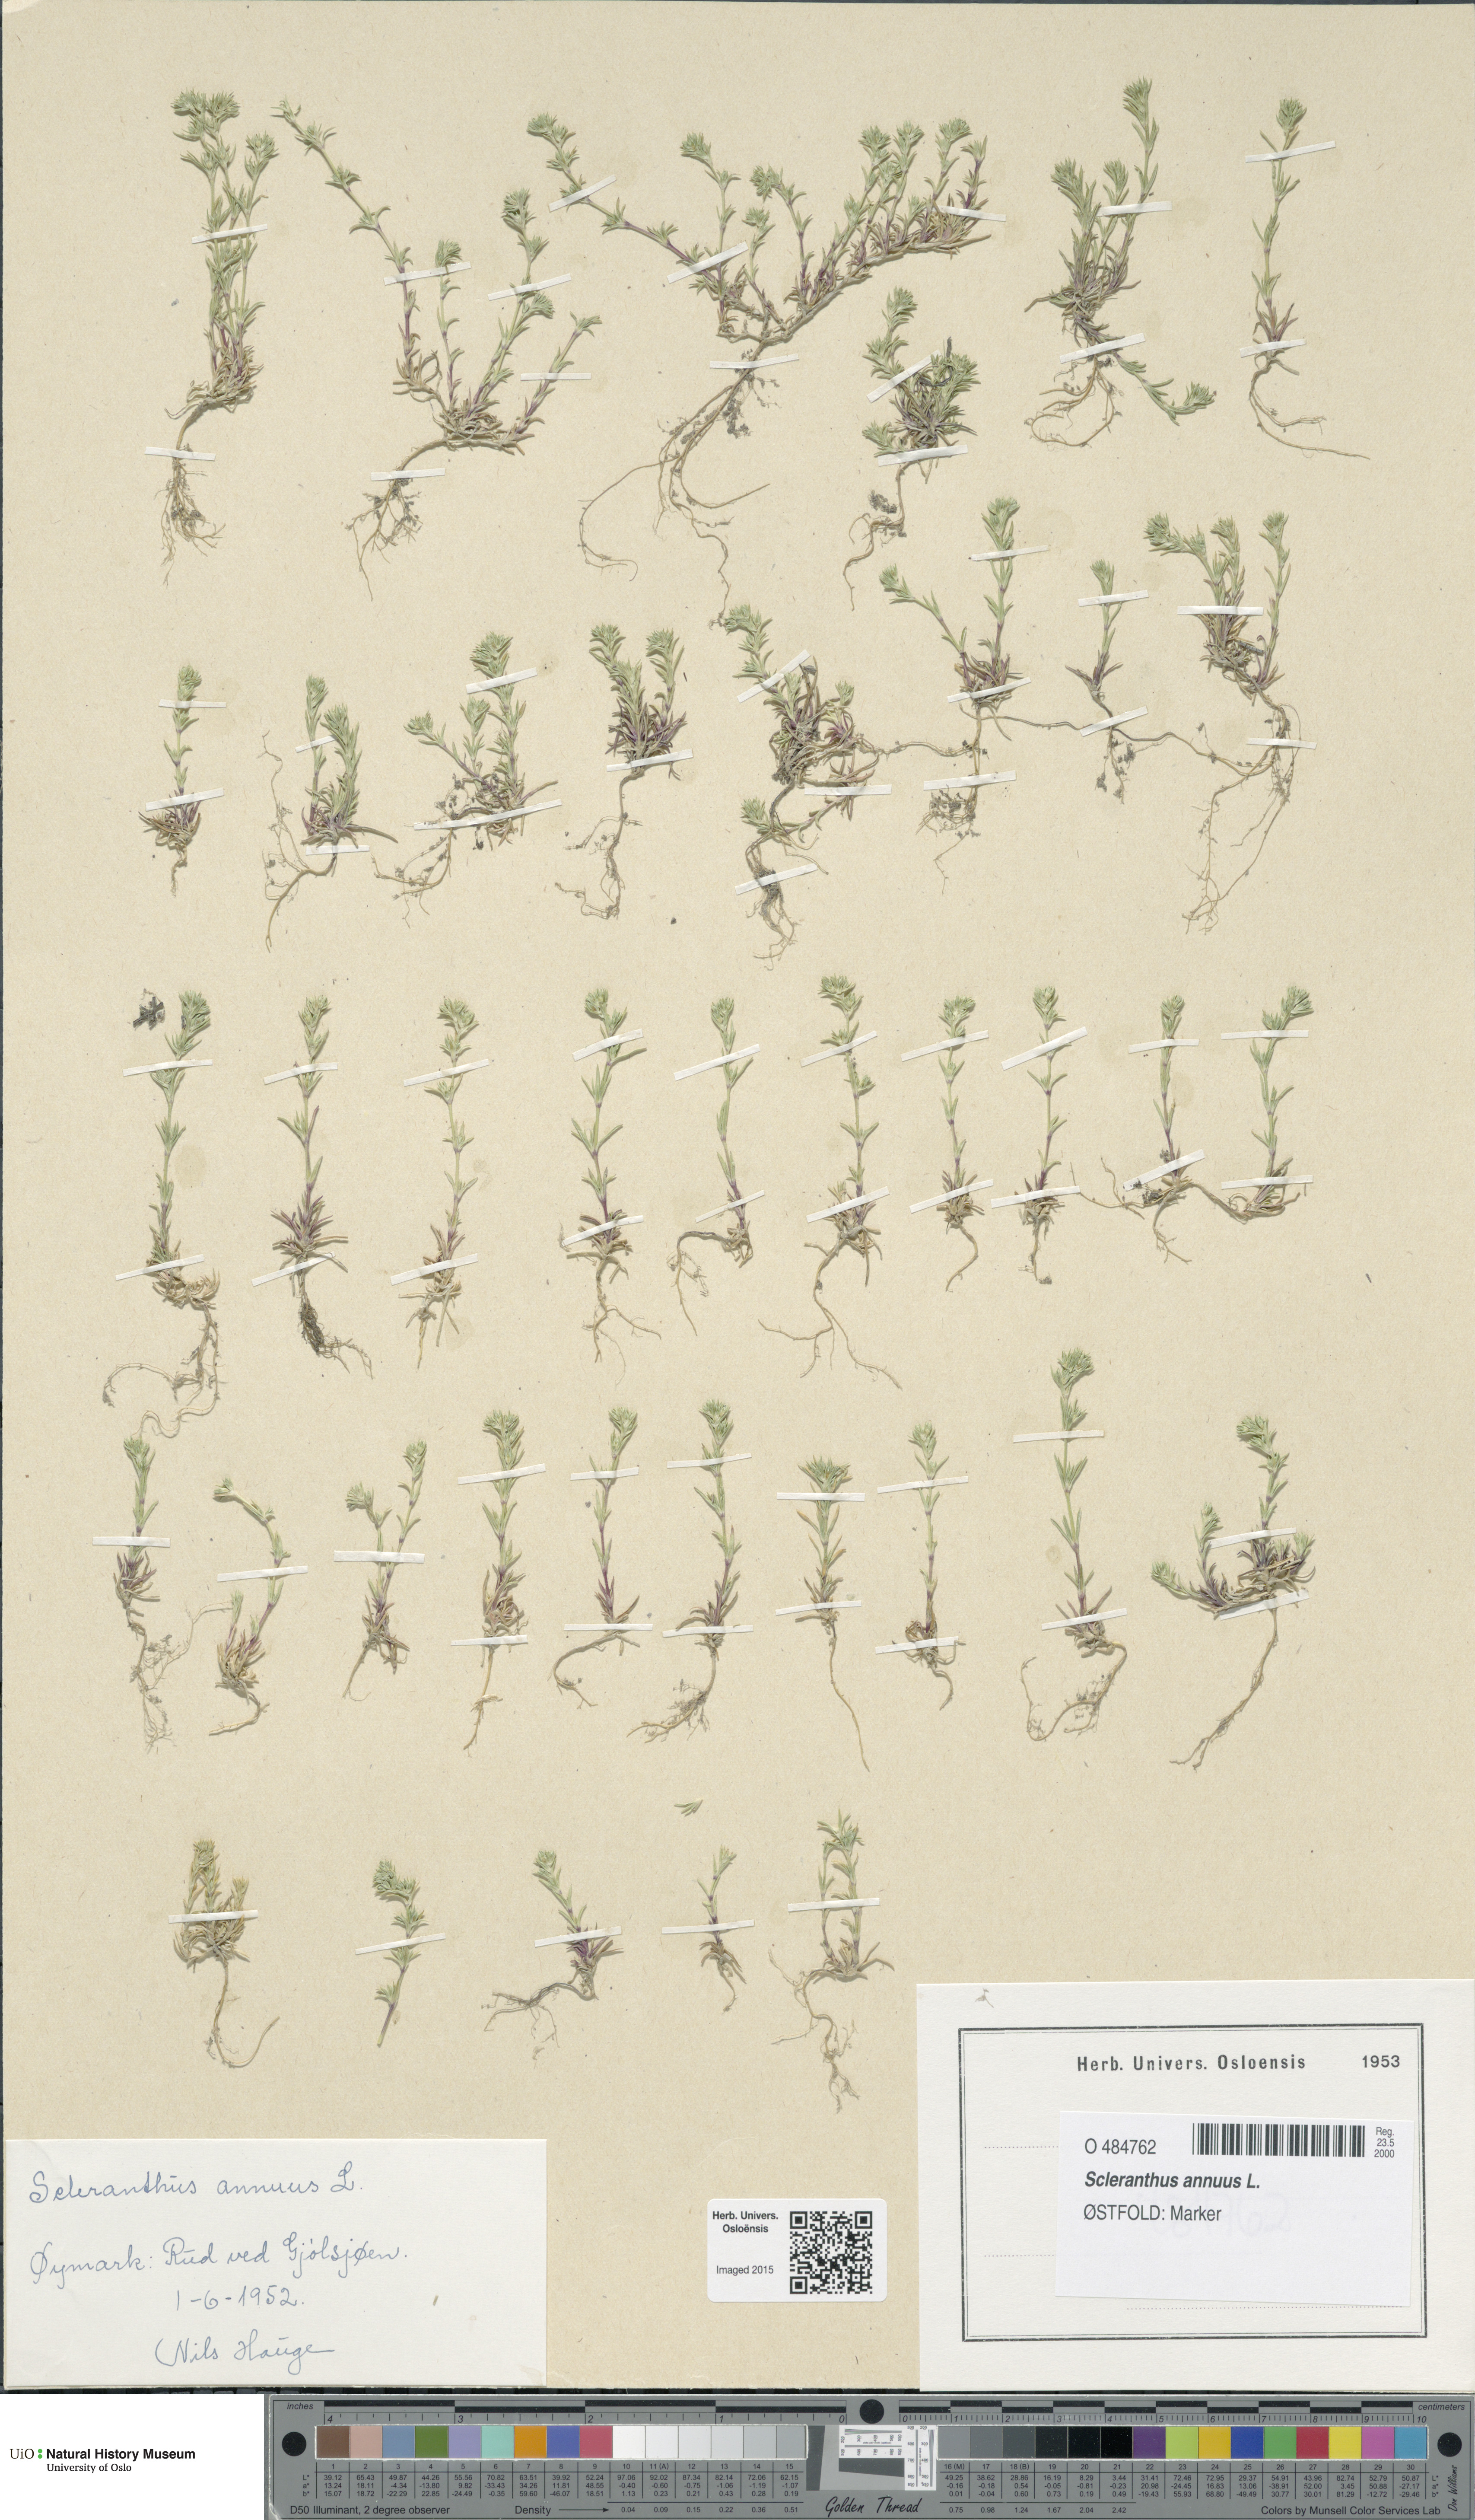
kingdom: Plantae
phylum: Tracheophyta
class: Magnoliopsida
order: Caryophyllales
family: Caryophyllaceae
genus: Scleranthus
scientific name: Scleranthus annuus
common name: Annual knawel
